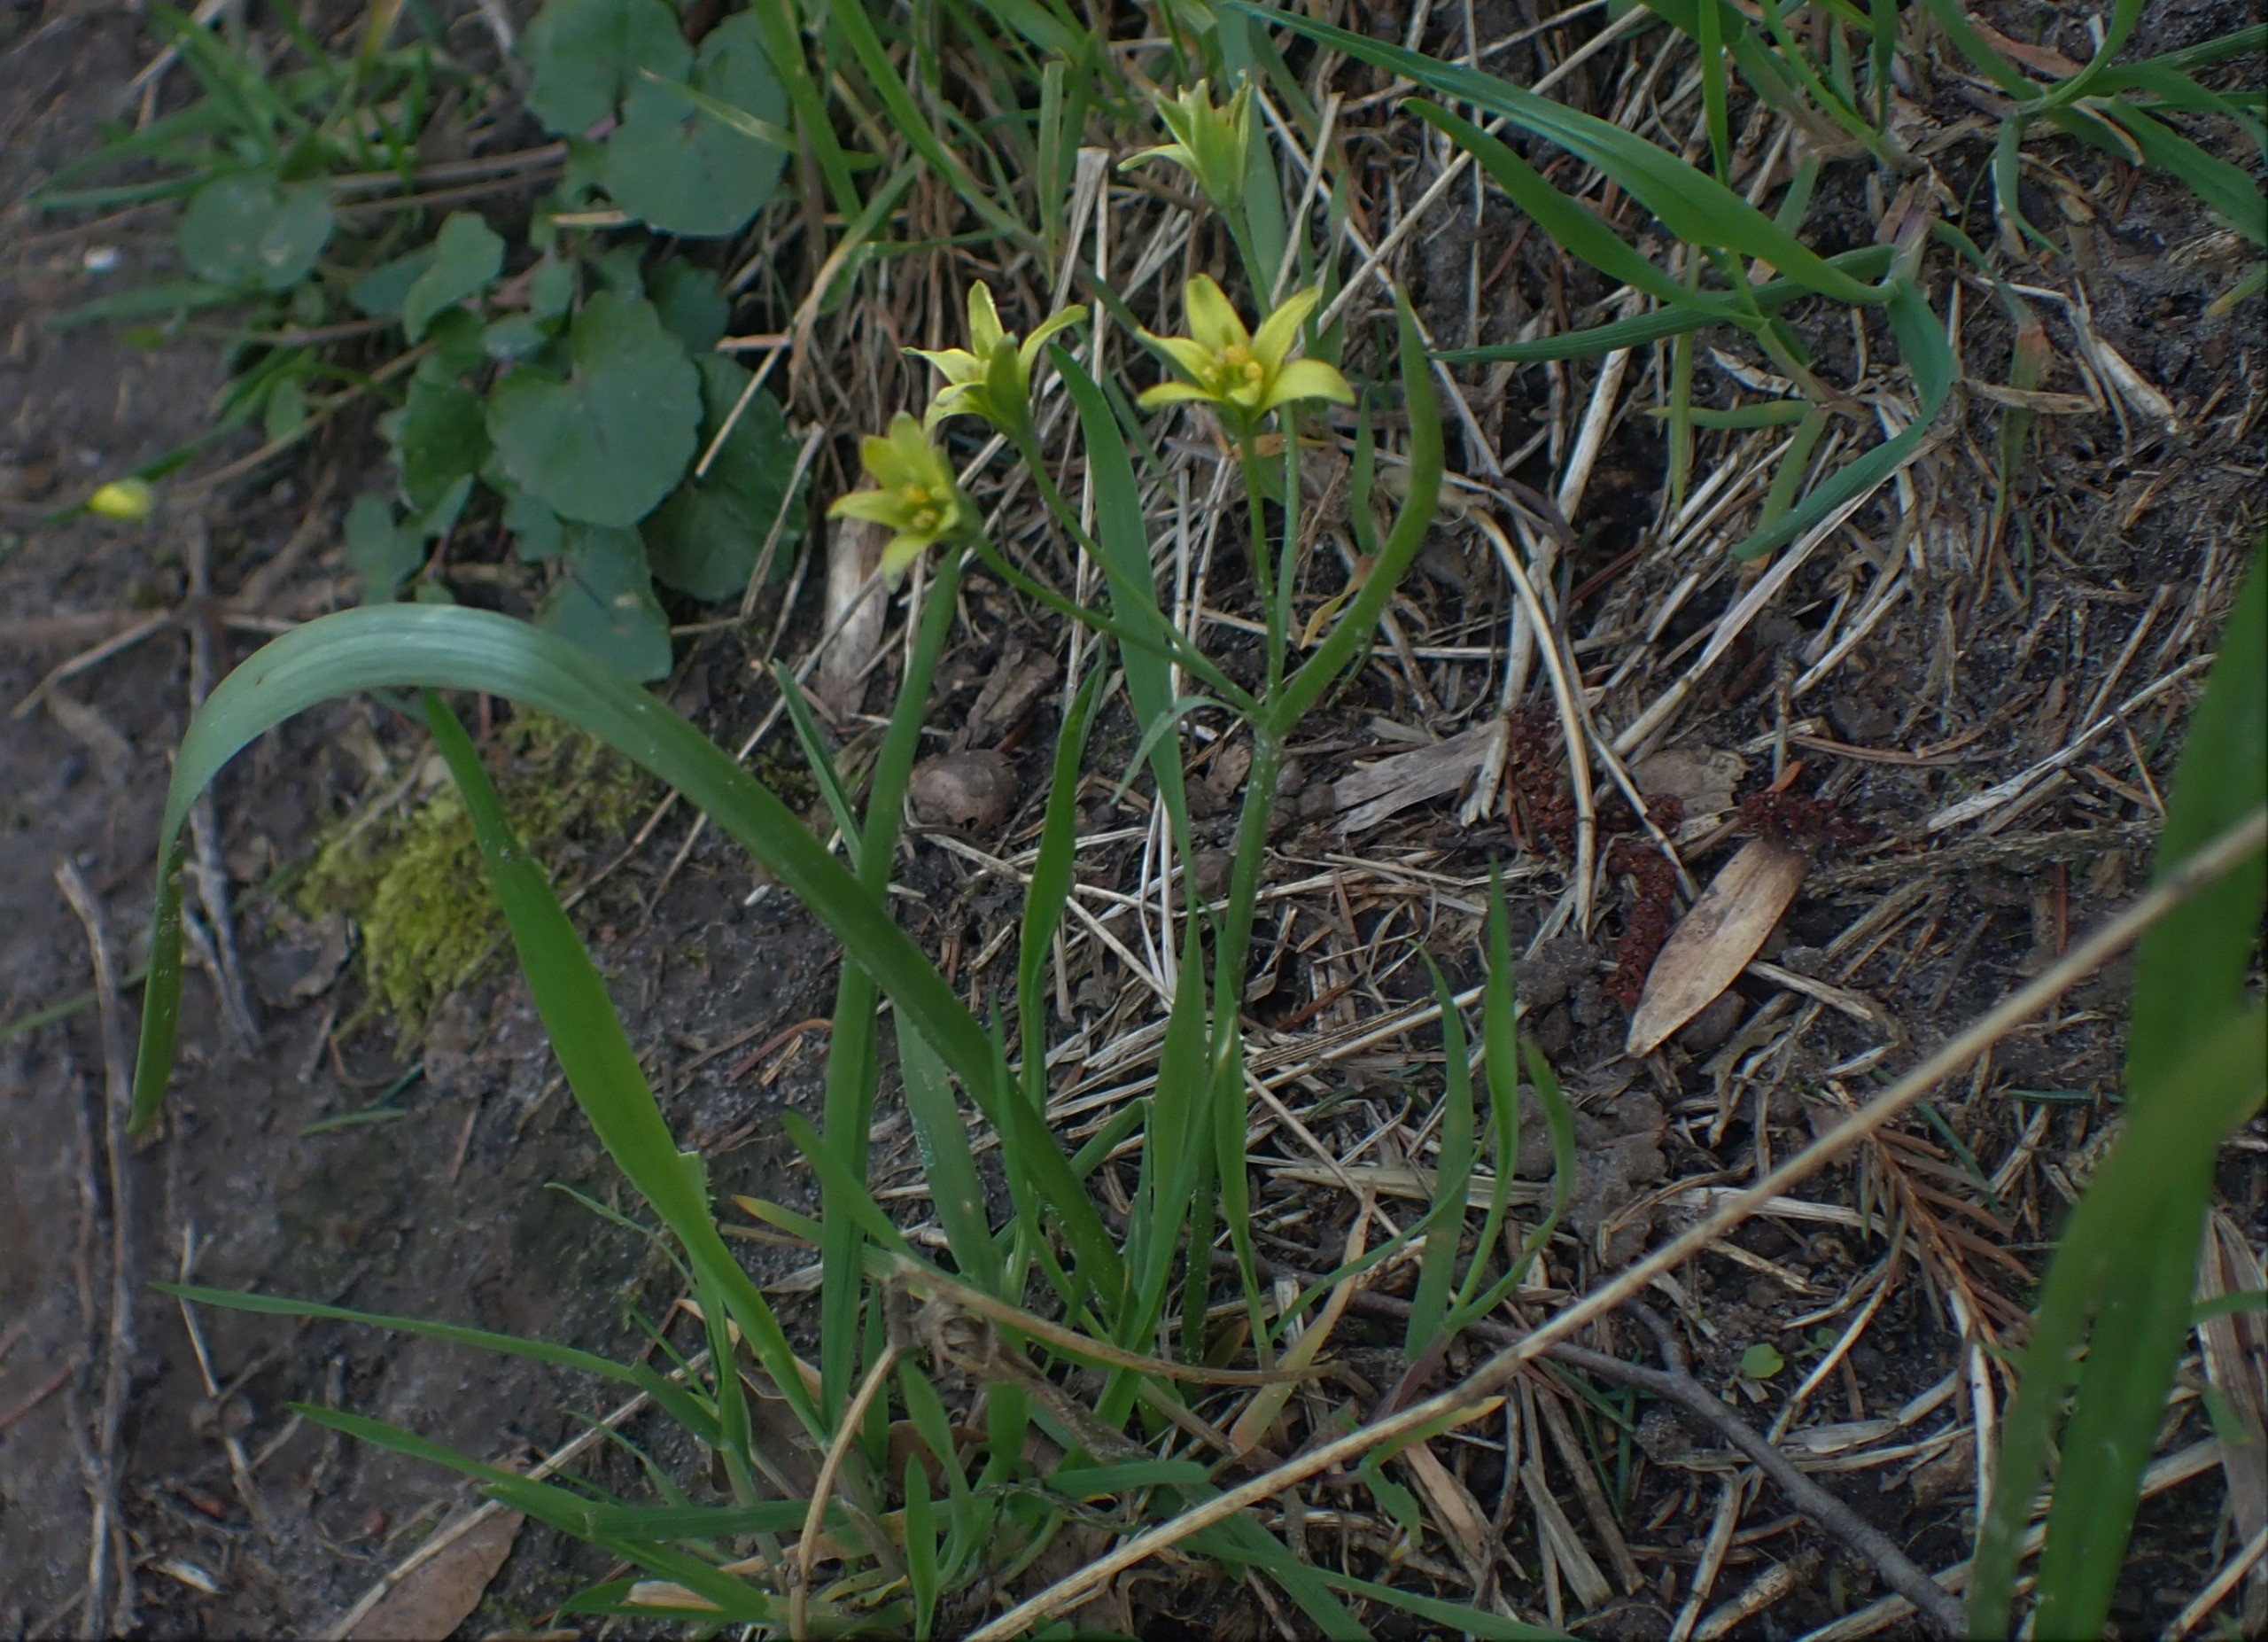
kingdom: Plantae
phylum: Tracheophyta
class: Liliopsida
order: Liliales
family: Liliaceae
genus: Gagea
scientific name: Gagea lutea
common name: Almindelig guldstjerne
